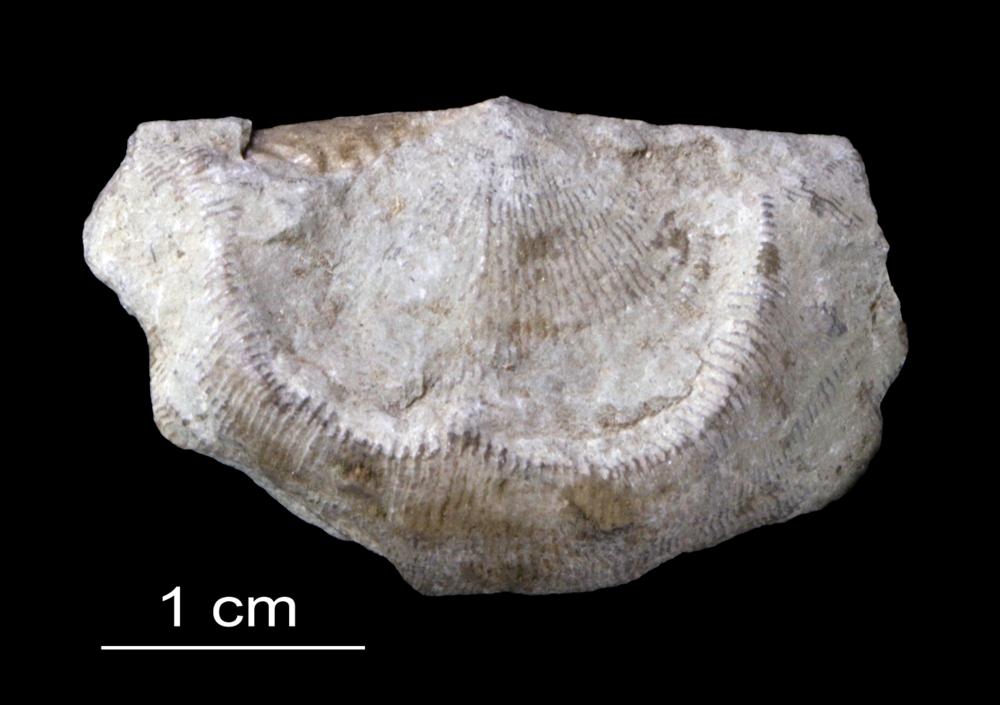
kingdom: Animalia
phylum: Brachiopoda
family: Strophomenidae
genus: Leptaena
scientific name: Leptaena Strophomena rhomboidalis
